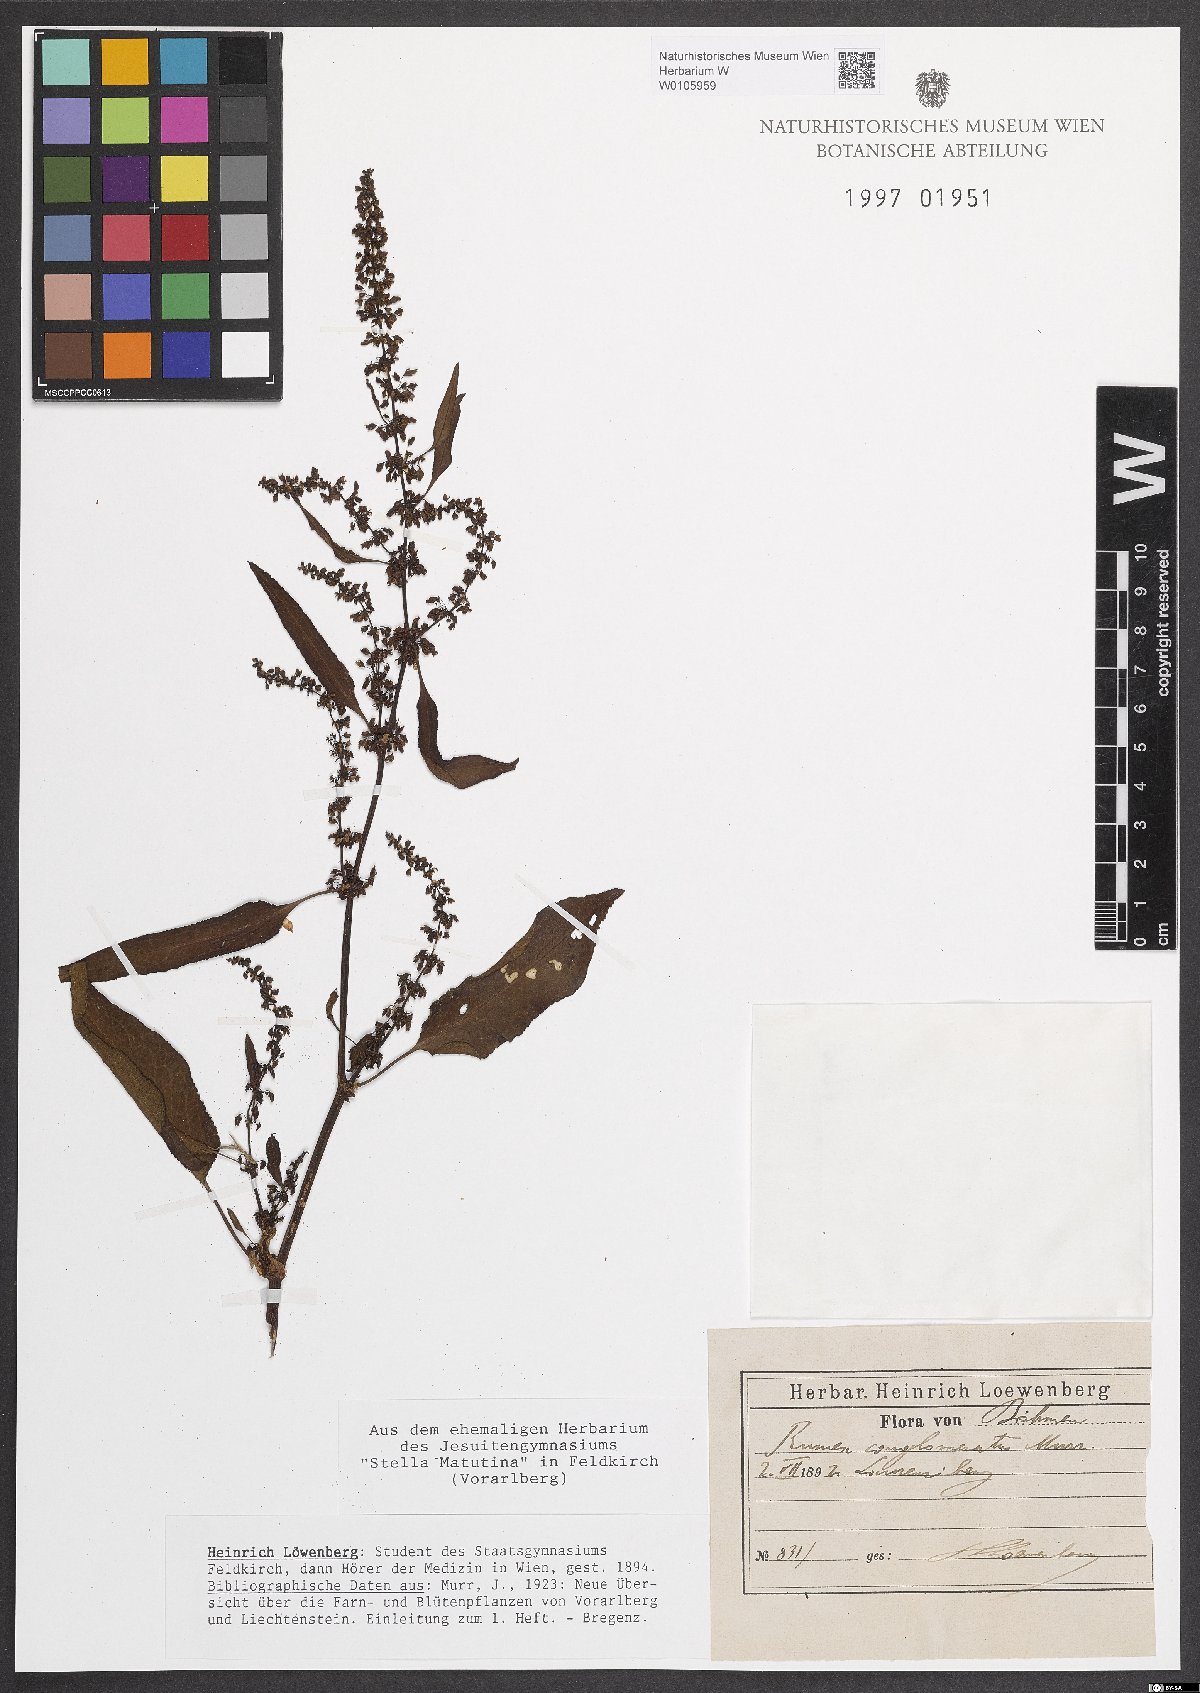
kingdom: Plantae
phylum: Tracheophyta
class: Magnoliopsida
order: Caryophyllales
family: Polygonaceae
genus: Rumex
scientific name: Rumex conglomeratus
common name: Clustered dock
